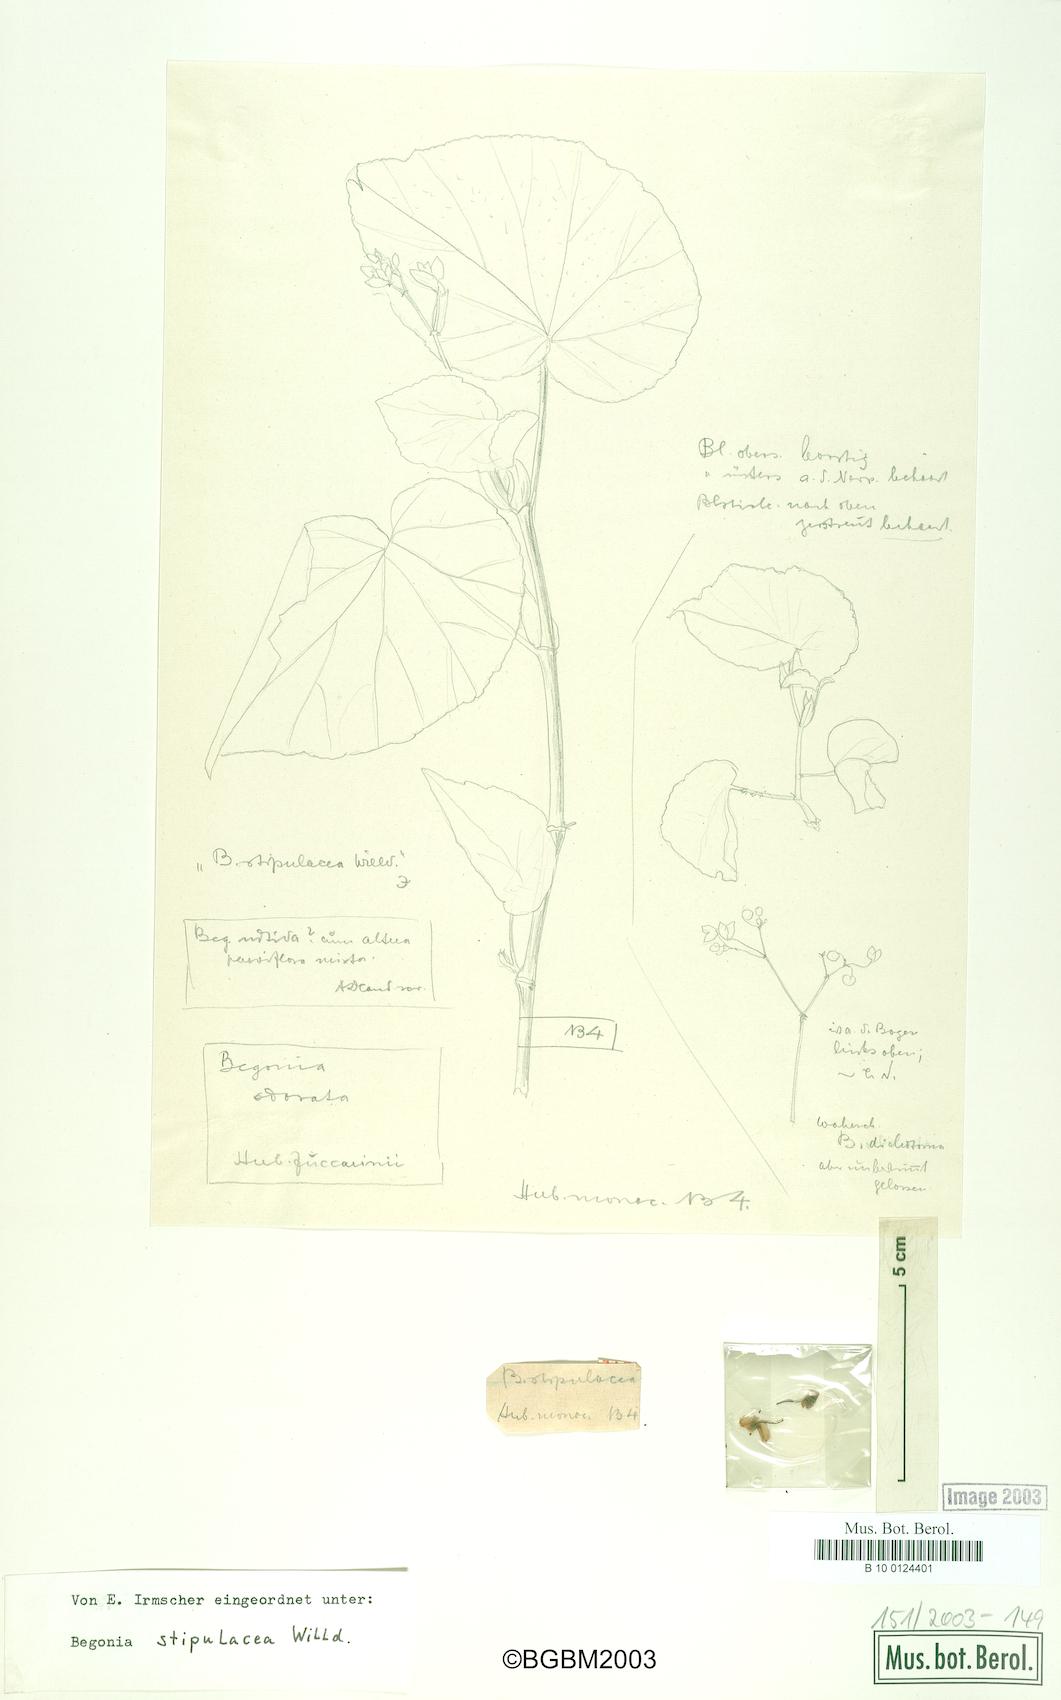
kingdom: Plantae
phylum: Tracheophyta
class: Magnoliopsida
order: Cucurbitales
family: Begoniaceae
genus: Begonia
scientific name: Begonia stipularis
